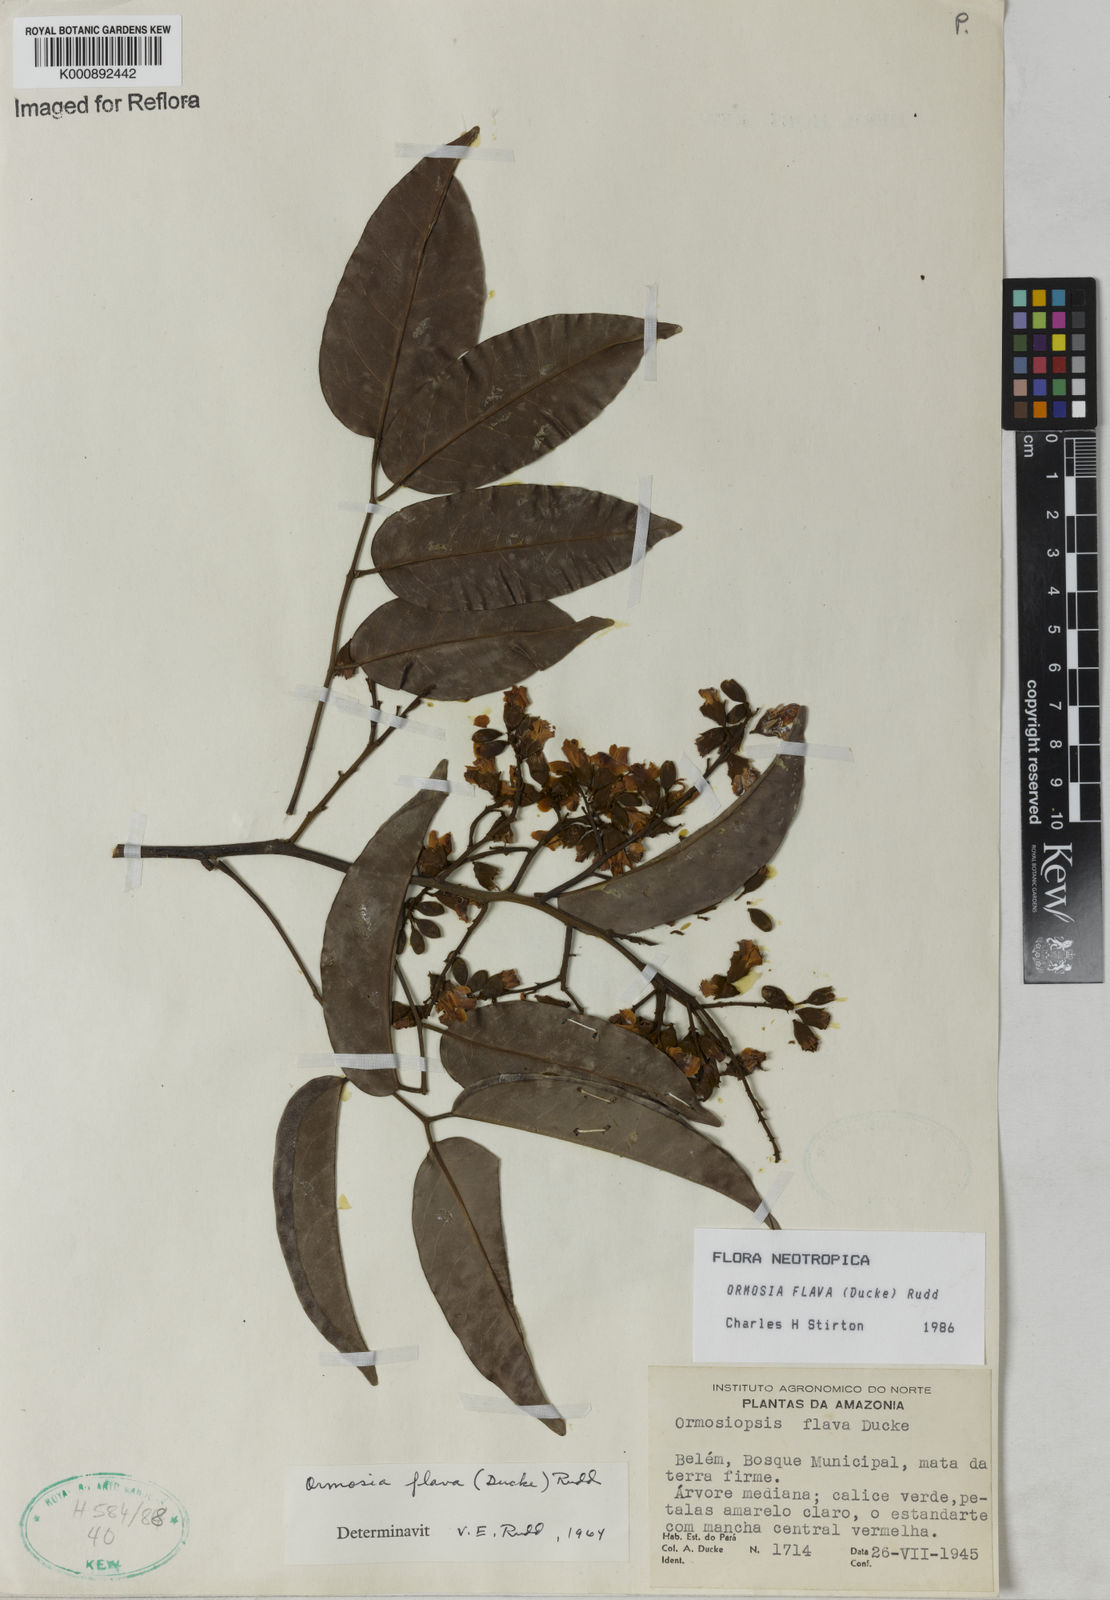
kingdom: Plantae
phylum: Tracheophyta
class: Magnoliopsida
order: Fabales
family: Fabaceae
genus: Ormosia
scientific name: Ormosia flava
